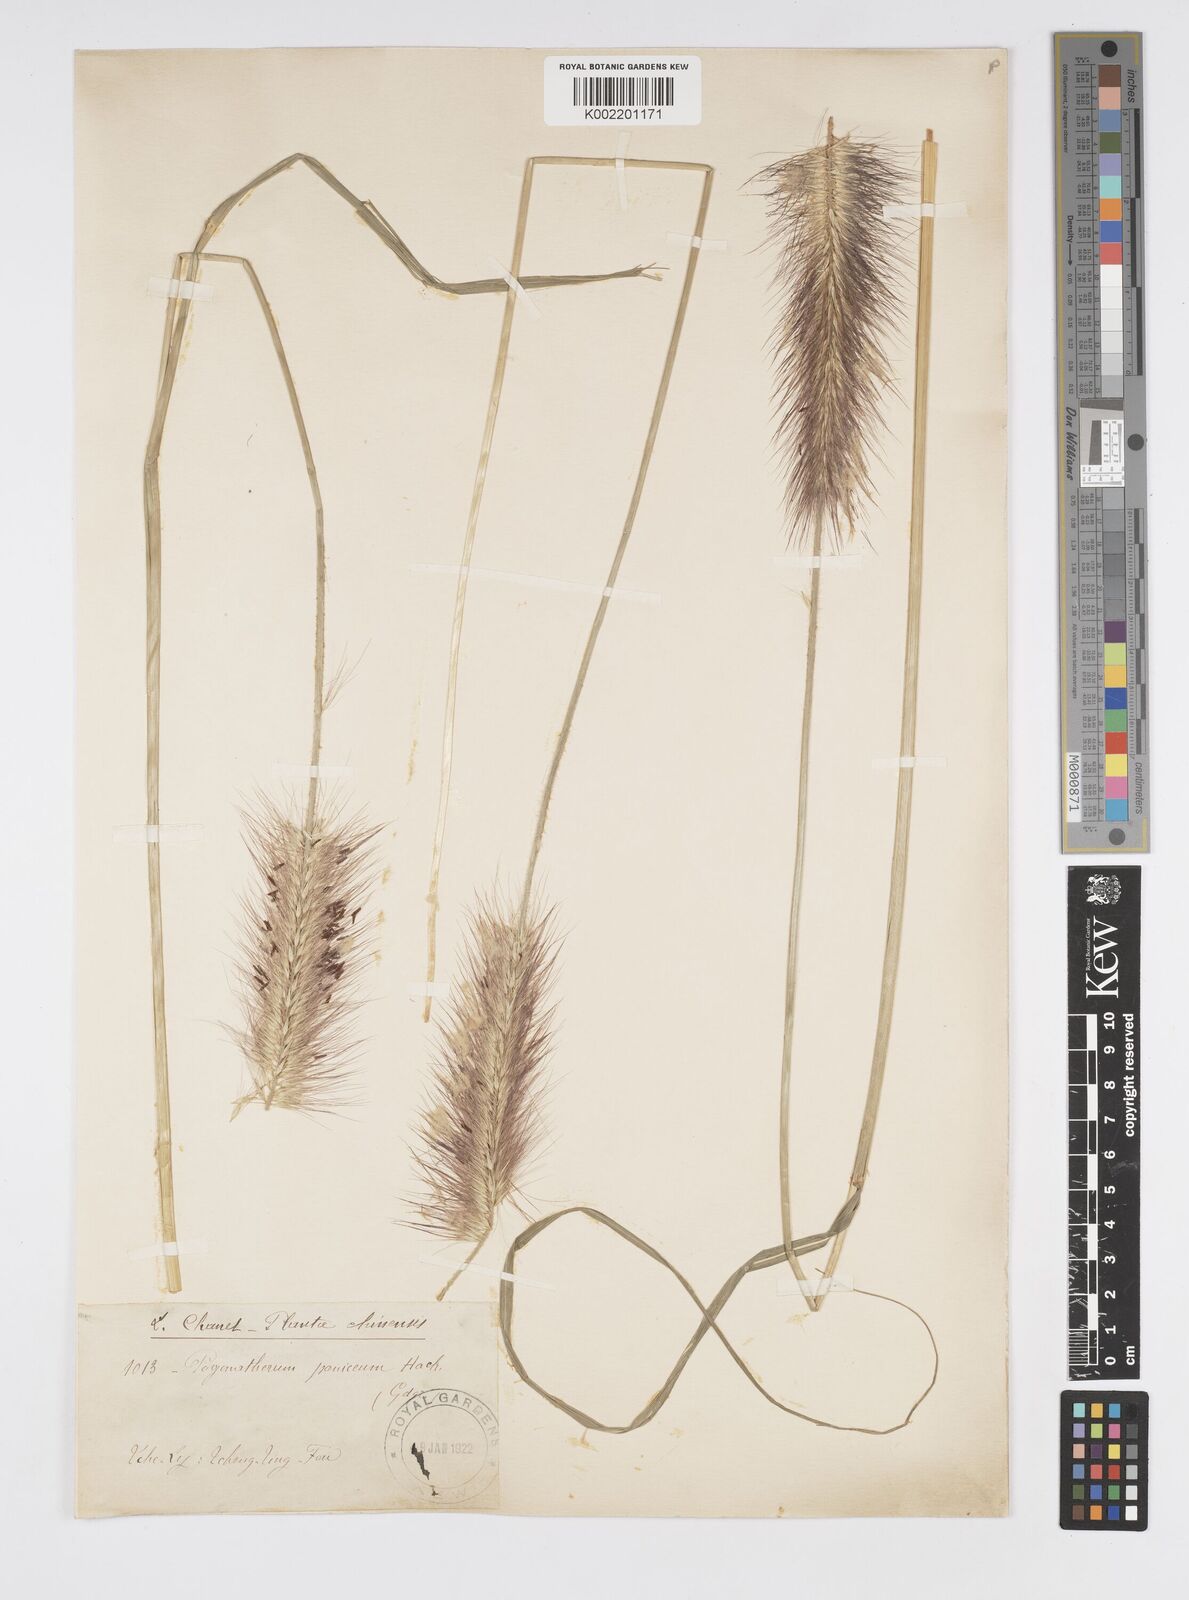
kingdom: Plantae
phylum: Tracheophyta
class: Liliopsida
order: Poales
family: Poaceae
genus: Cenchrus
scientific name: Cenchrus alopecuroides
